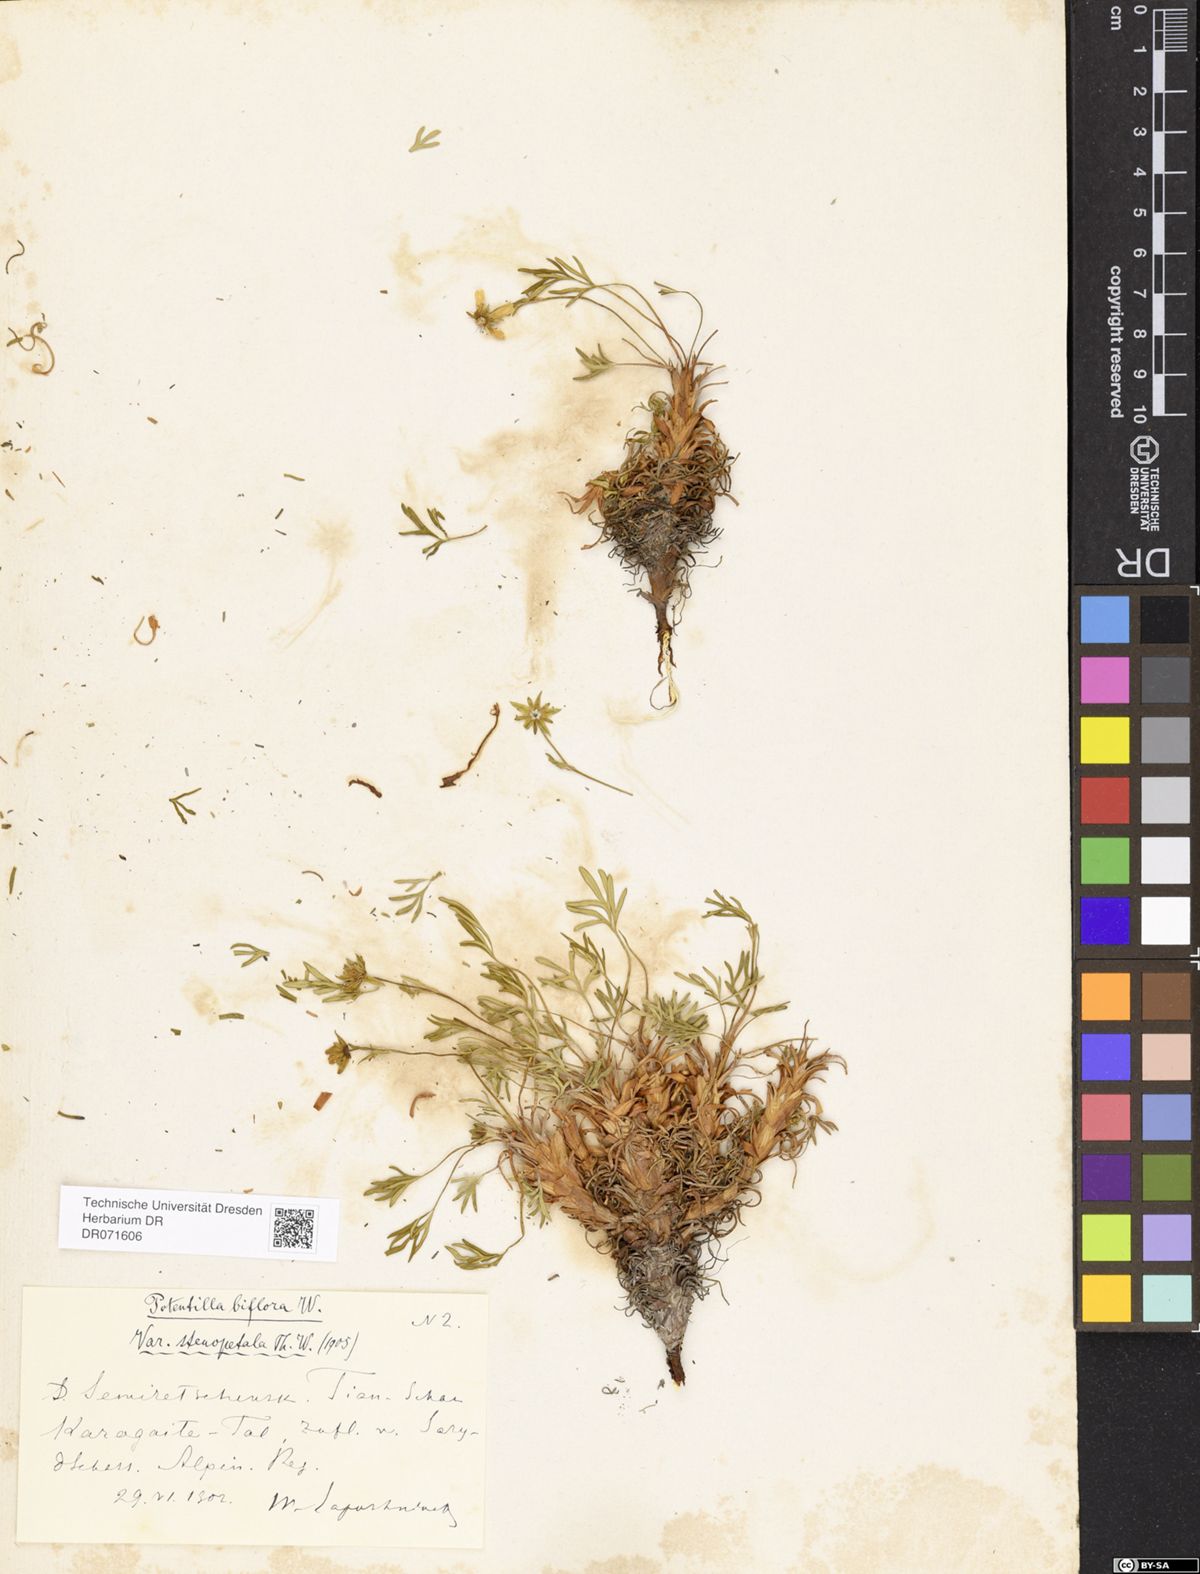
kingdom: Plantae
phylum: Tracheophyta
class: Magnoliopsida
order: Rosales
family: Rosaceae
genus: Potentilla
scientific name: Potentilla biflora
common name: Two-flowered cinquefoil
